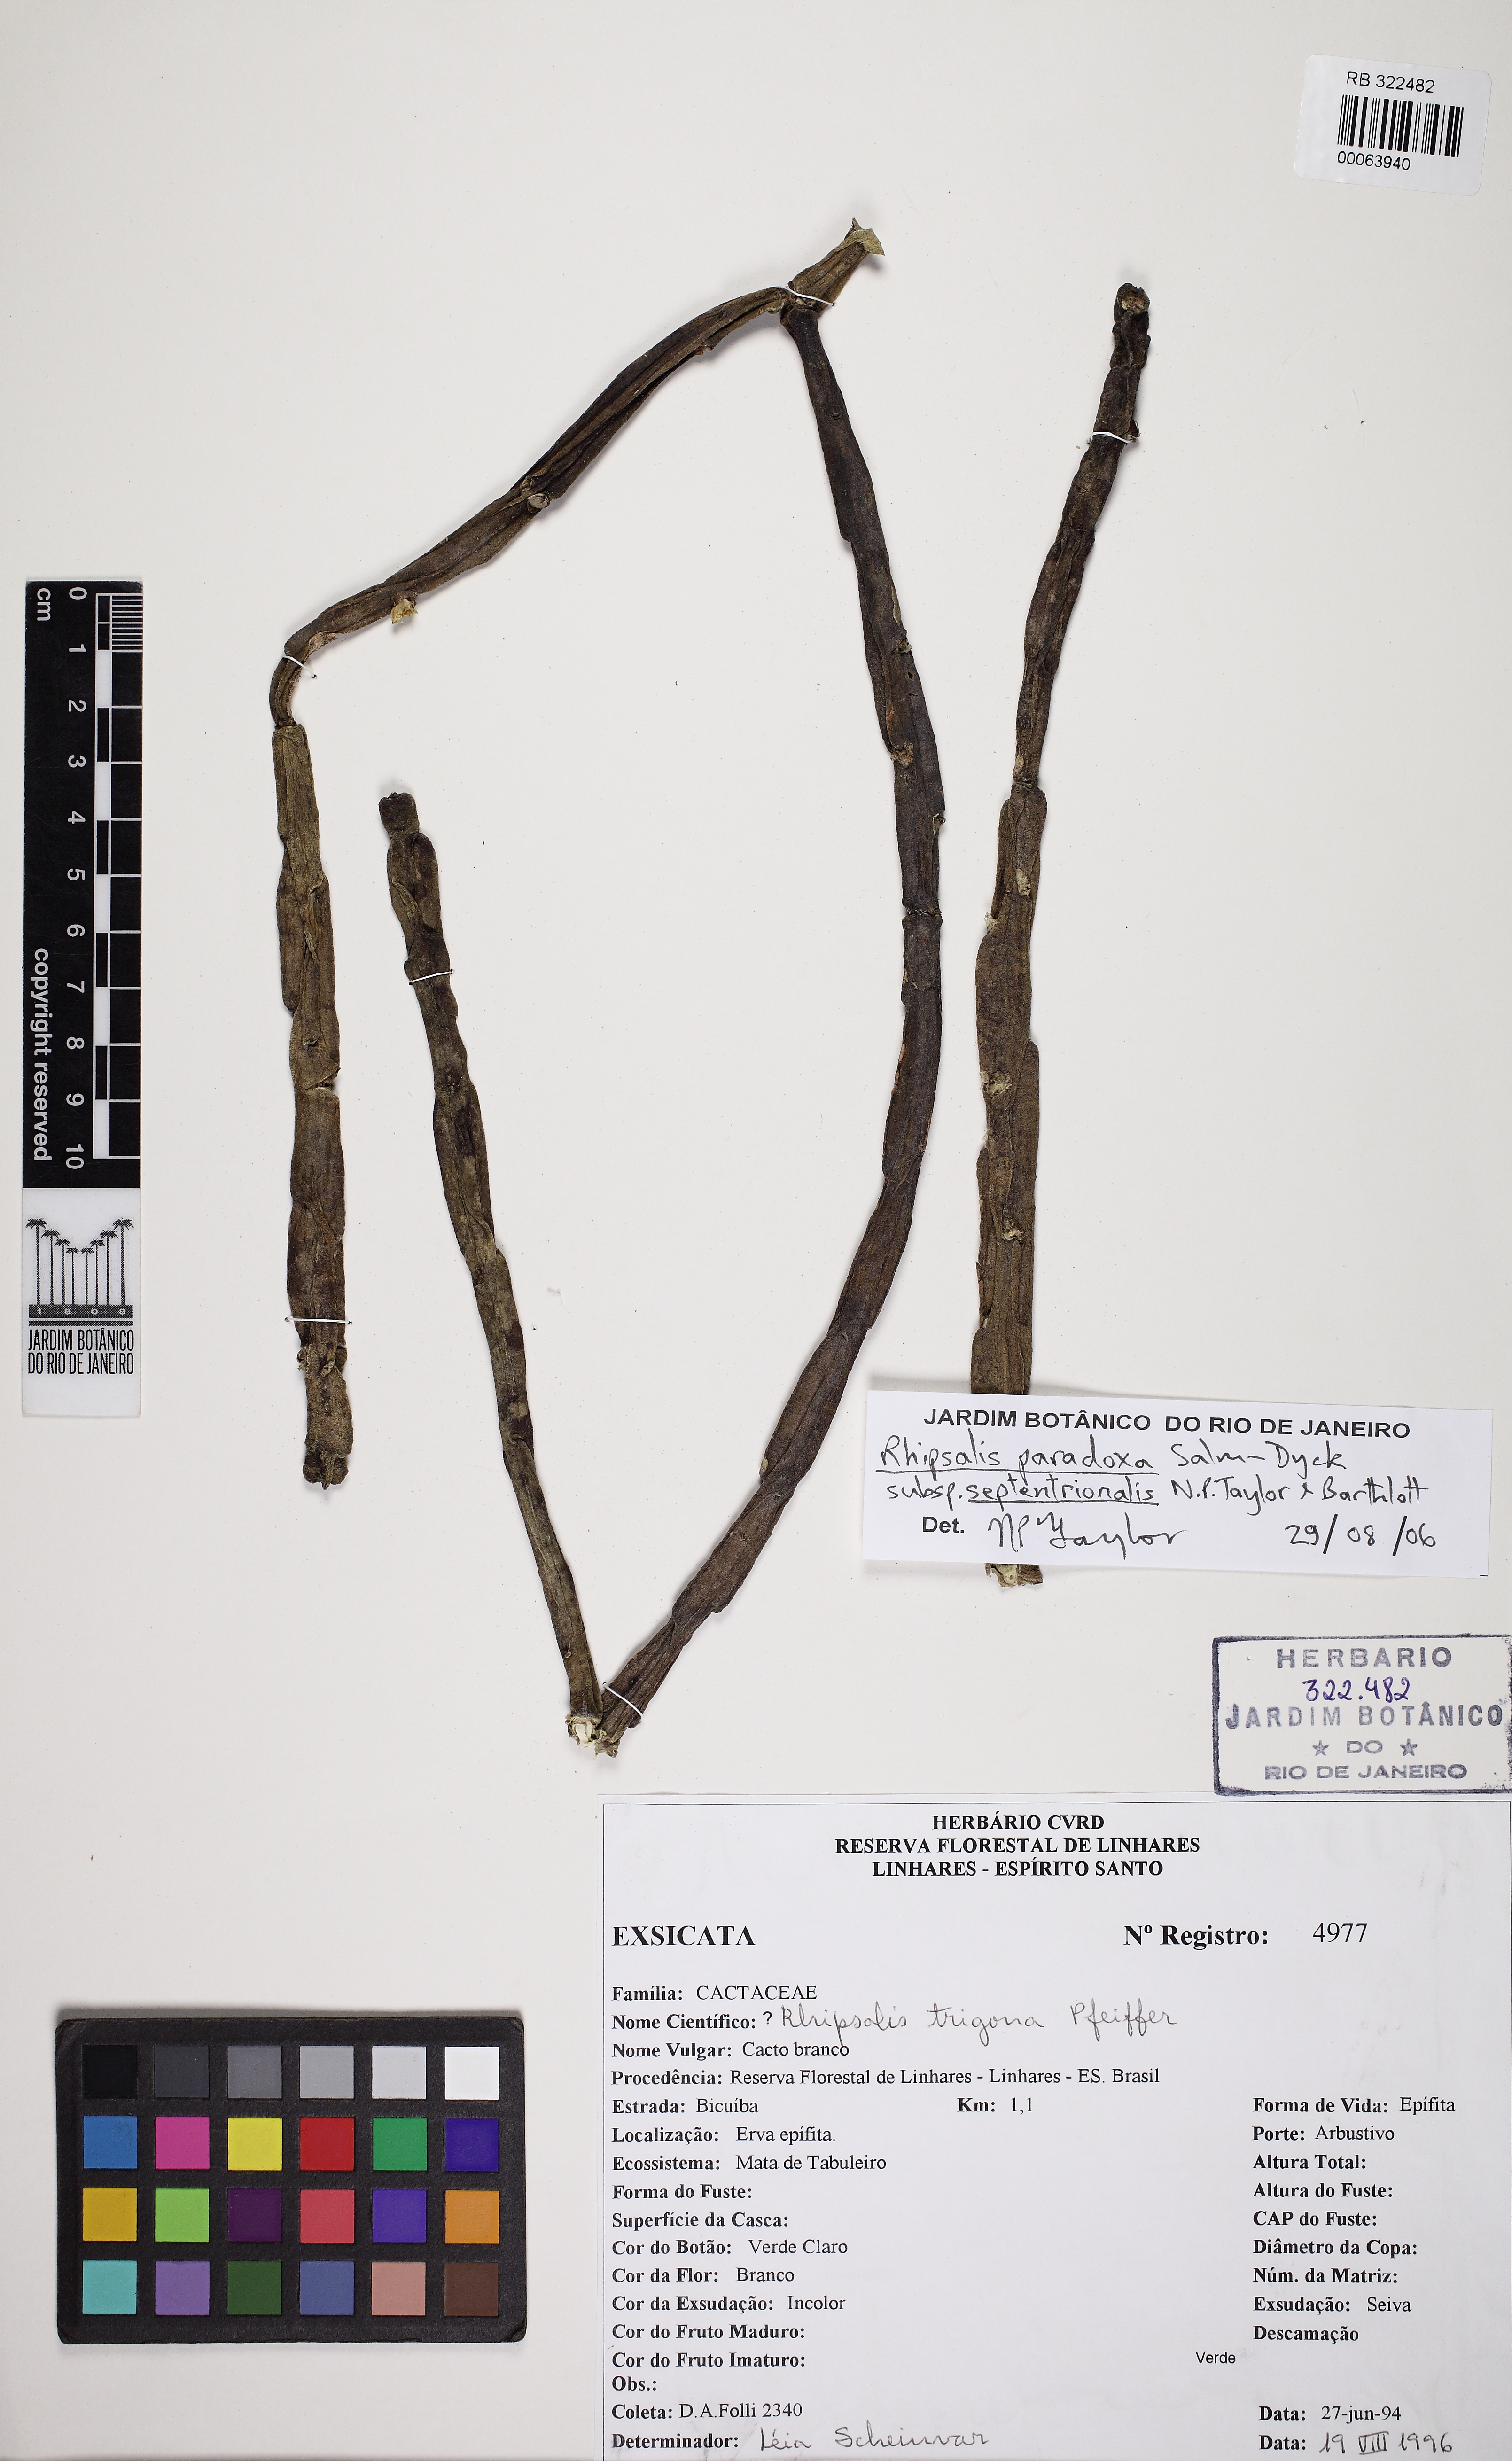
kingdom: Plantae
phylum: Tracheophyta
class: Magnoliopsida
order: Caryophyllales
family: Cactaceae
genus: Rhipsalis
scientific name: Rhipsalis paradoxa
